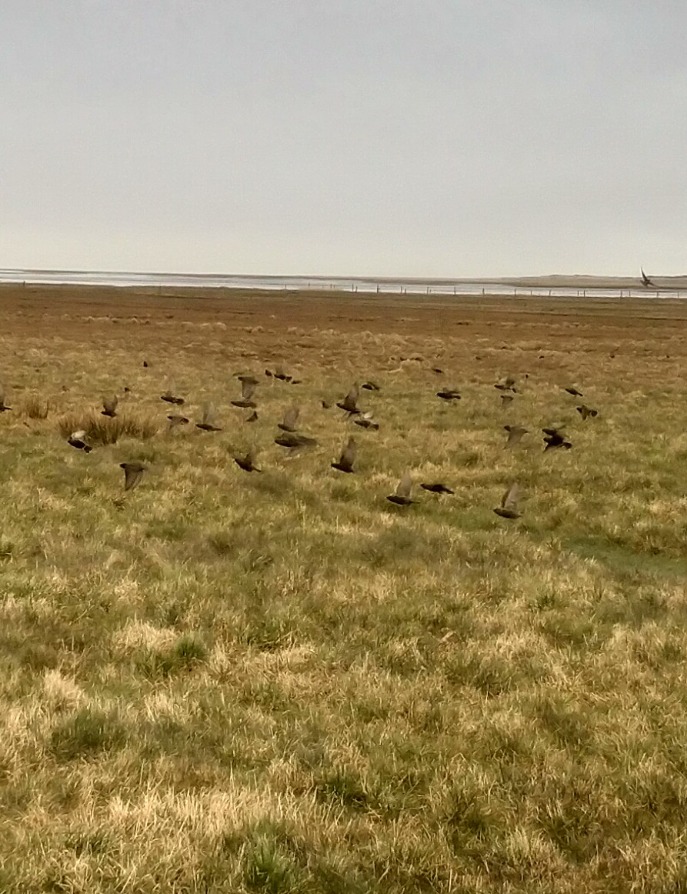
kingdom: Animalia
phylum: Chordata
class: Aves
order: Passeriformes
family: Sturnidae
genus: Sturnus
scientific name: Sturnus vulgaris
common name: Stær
